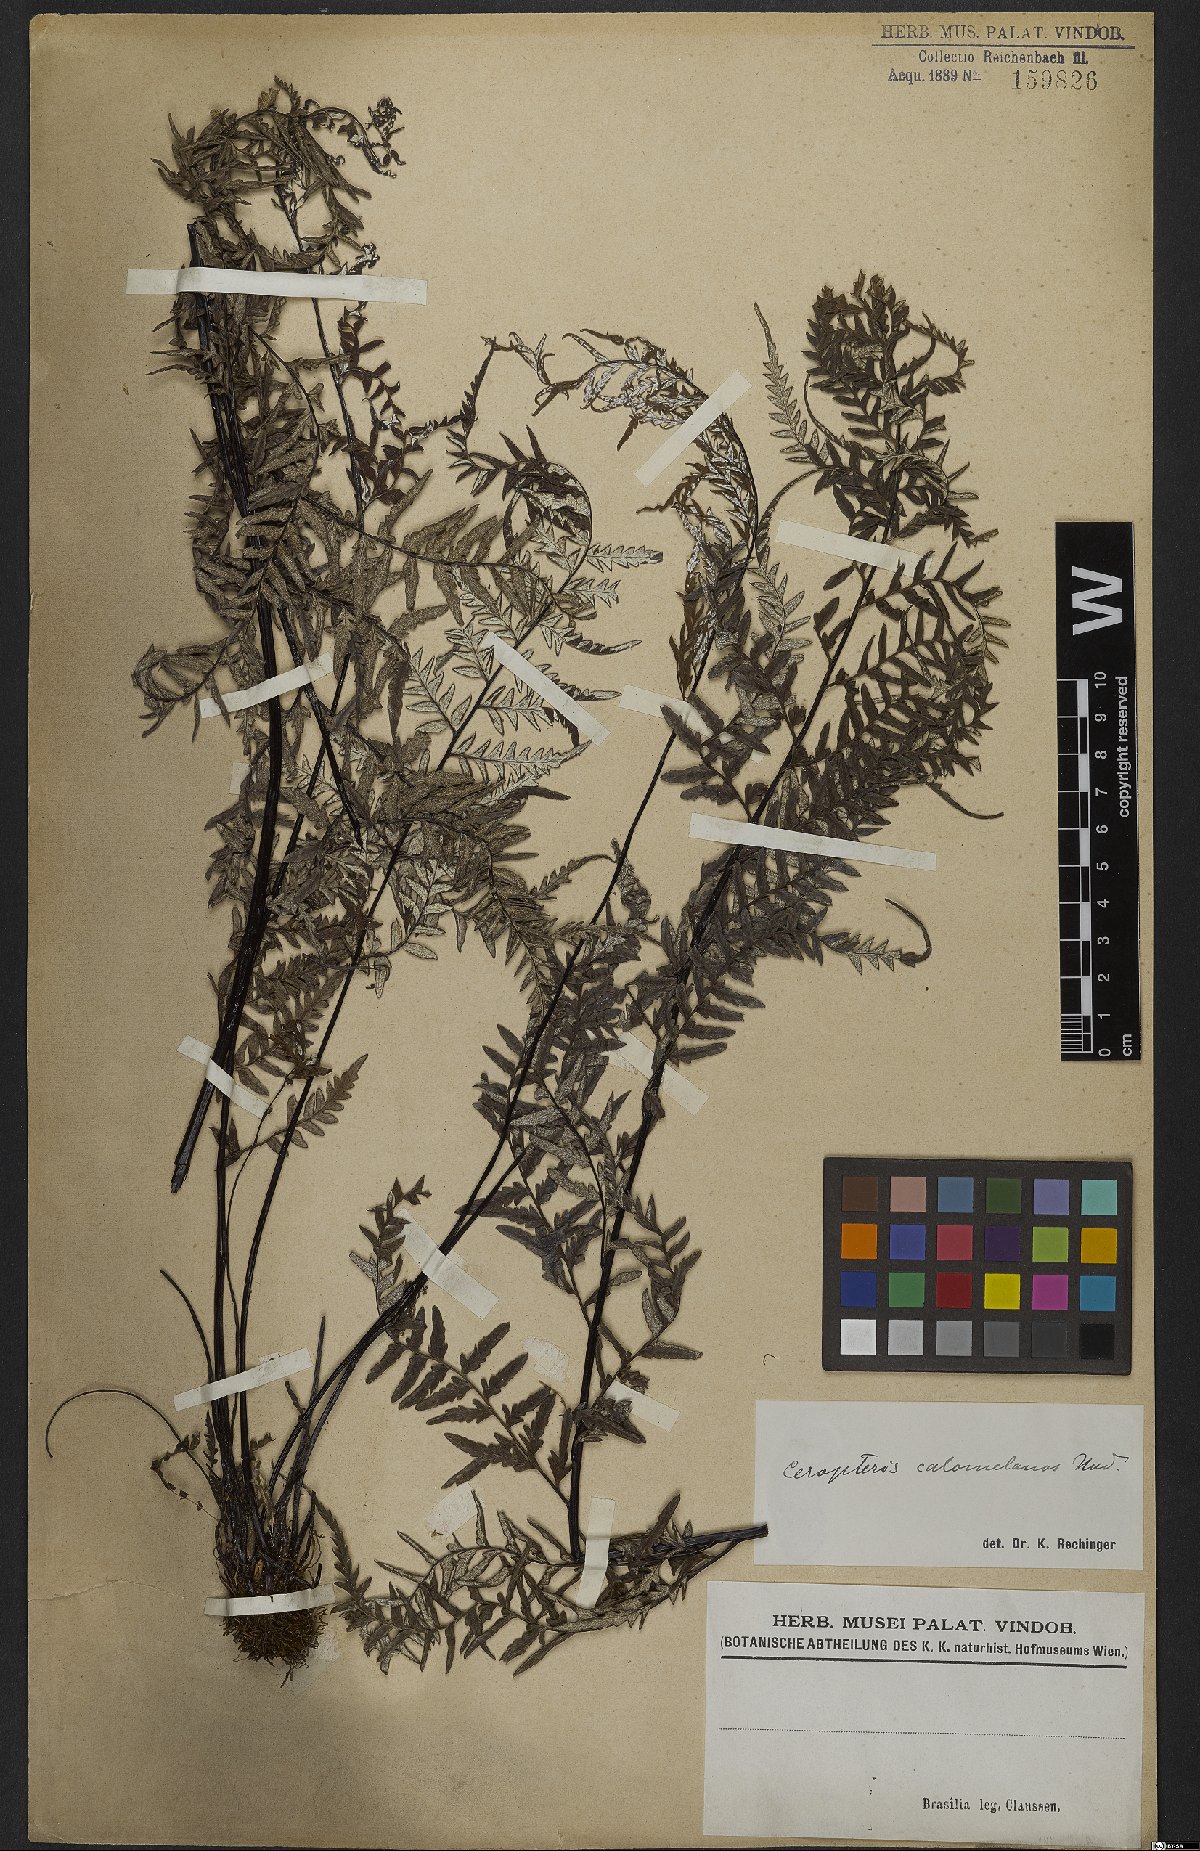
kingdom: Plantae
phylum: Tracheophyta
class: Polypodiopsida
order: Polypodiales
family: Pteridaceae
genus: Pityrogramma
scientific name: Pityrogramma calomelanos
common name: Dixie silverback fern
